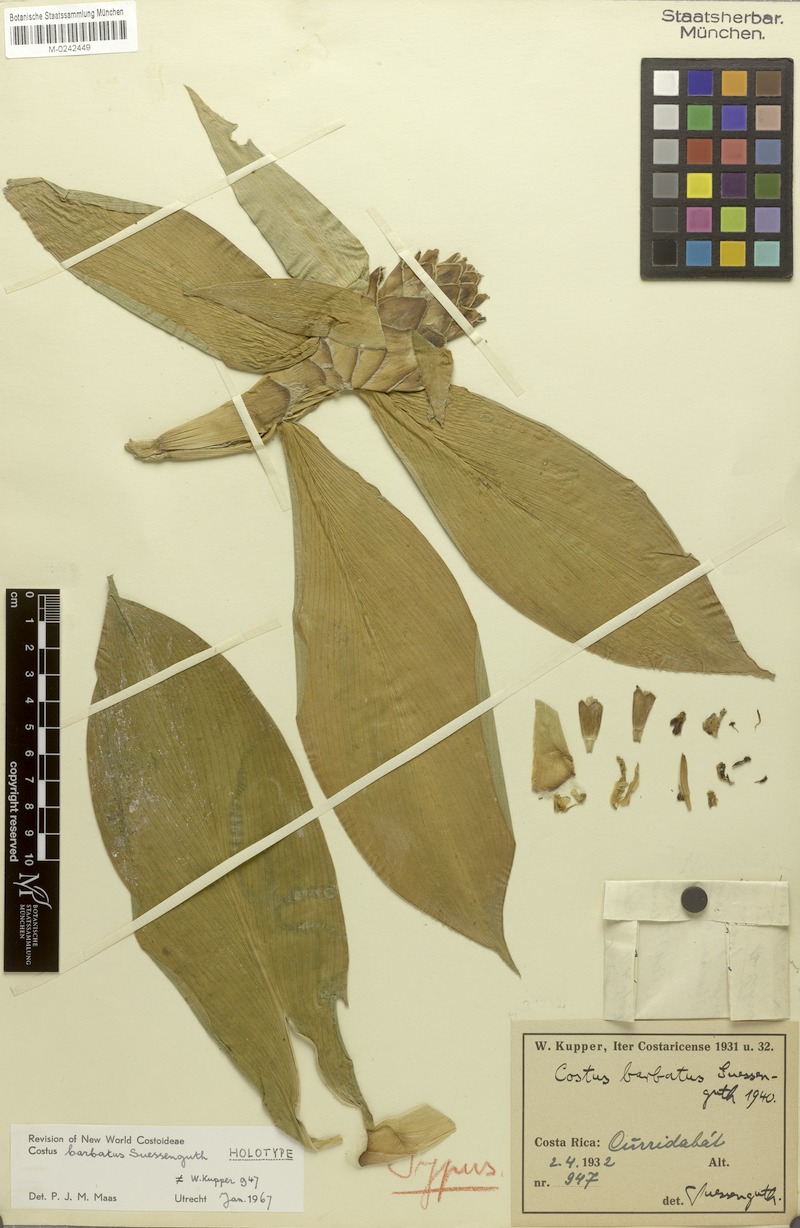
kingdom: Plantae
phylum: Tracheophyta
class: Liliopsida
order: Zingiberales
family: Costaceae
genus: Costus
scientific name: Costus barbatus
